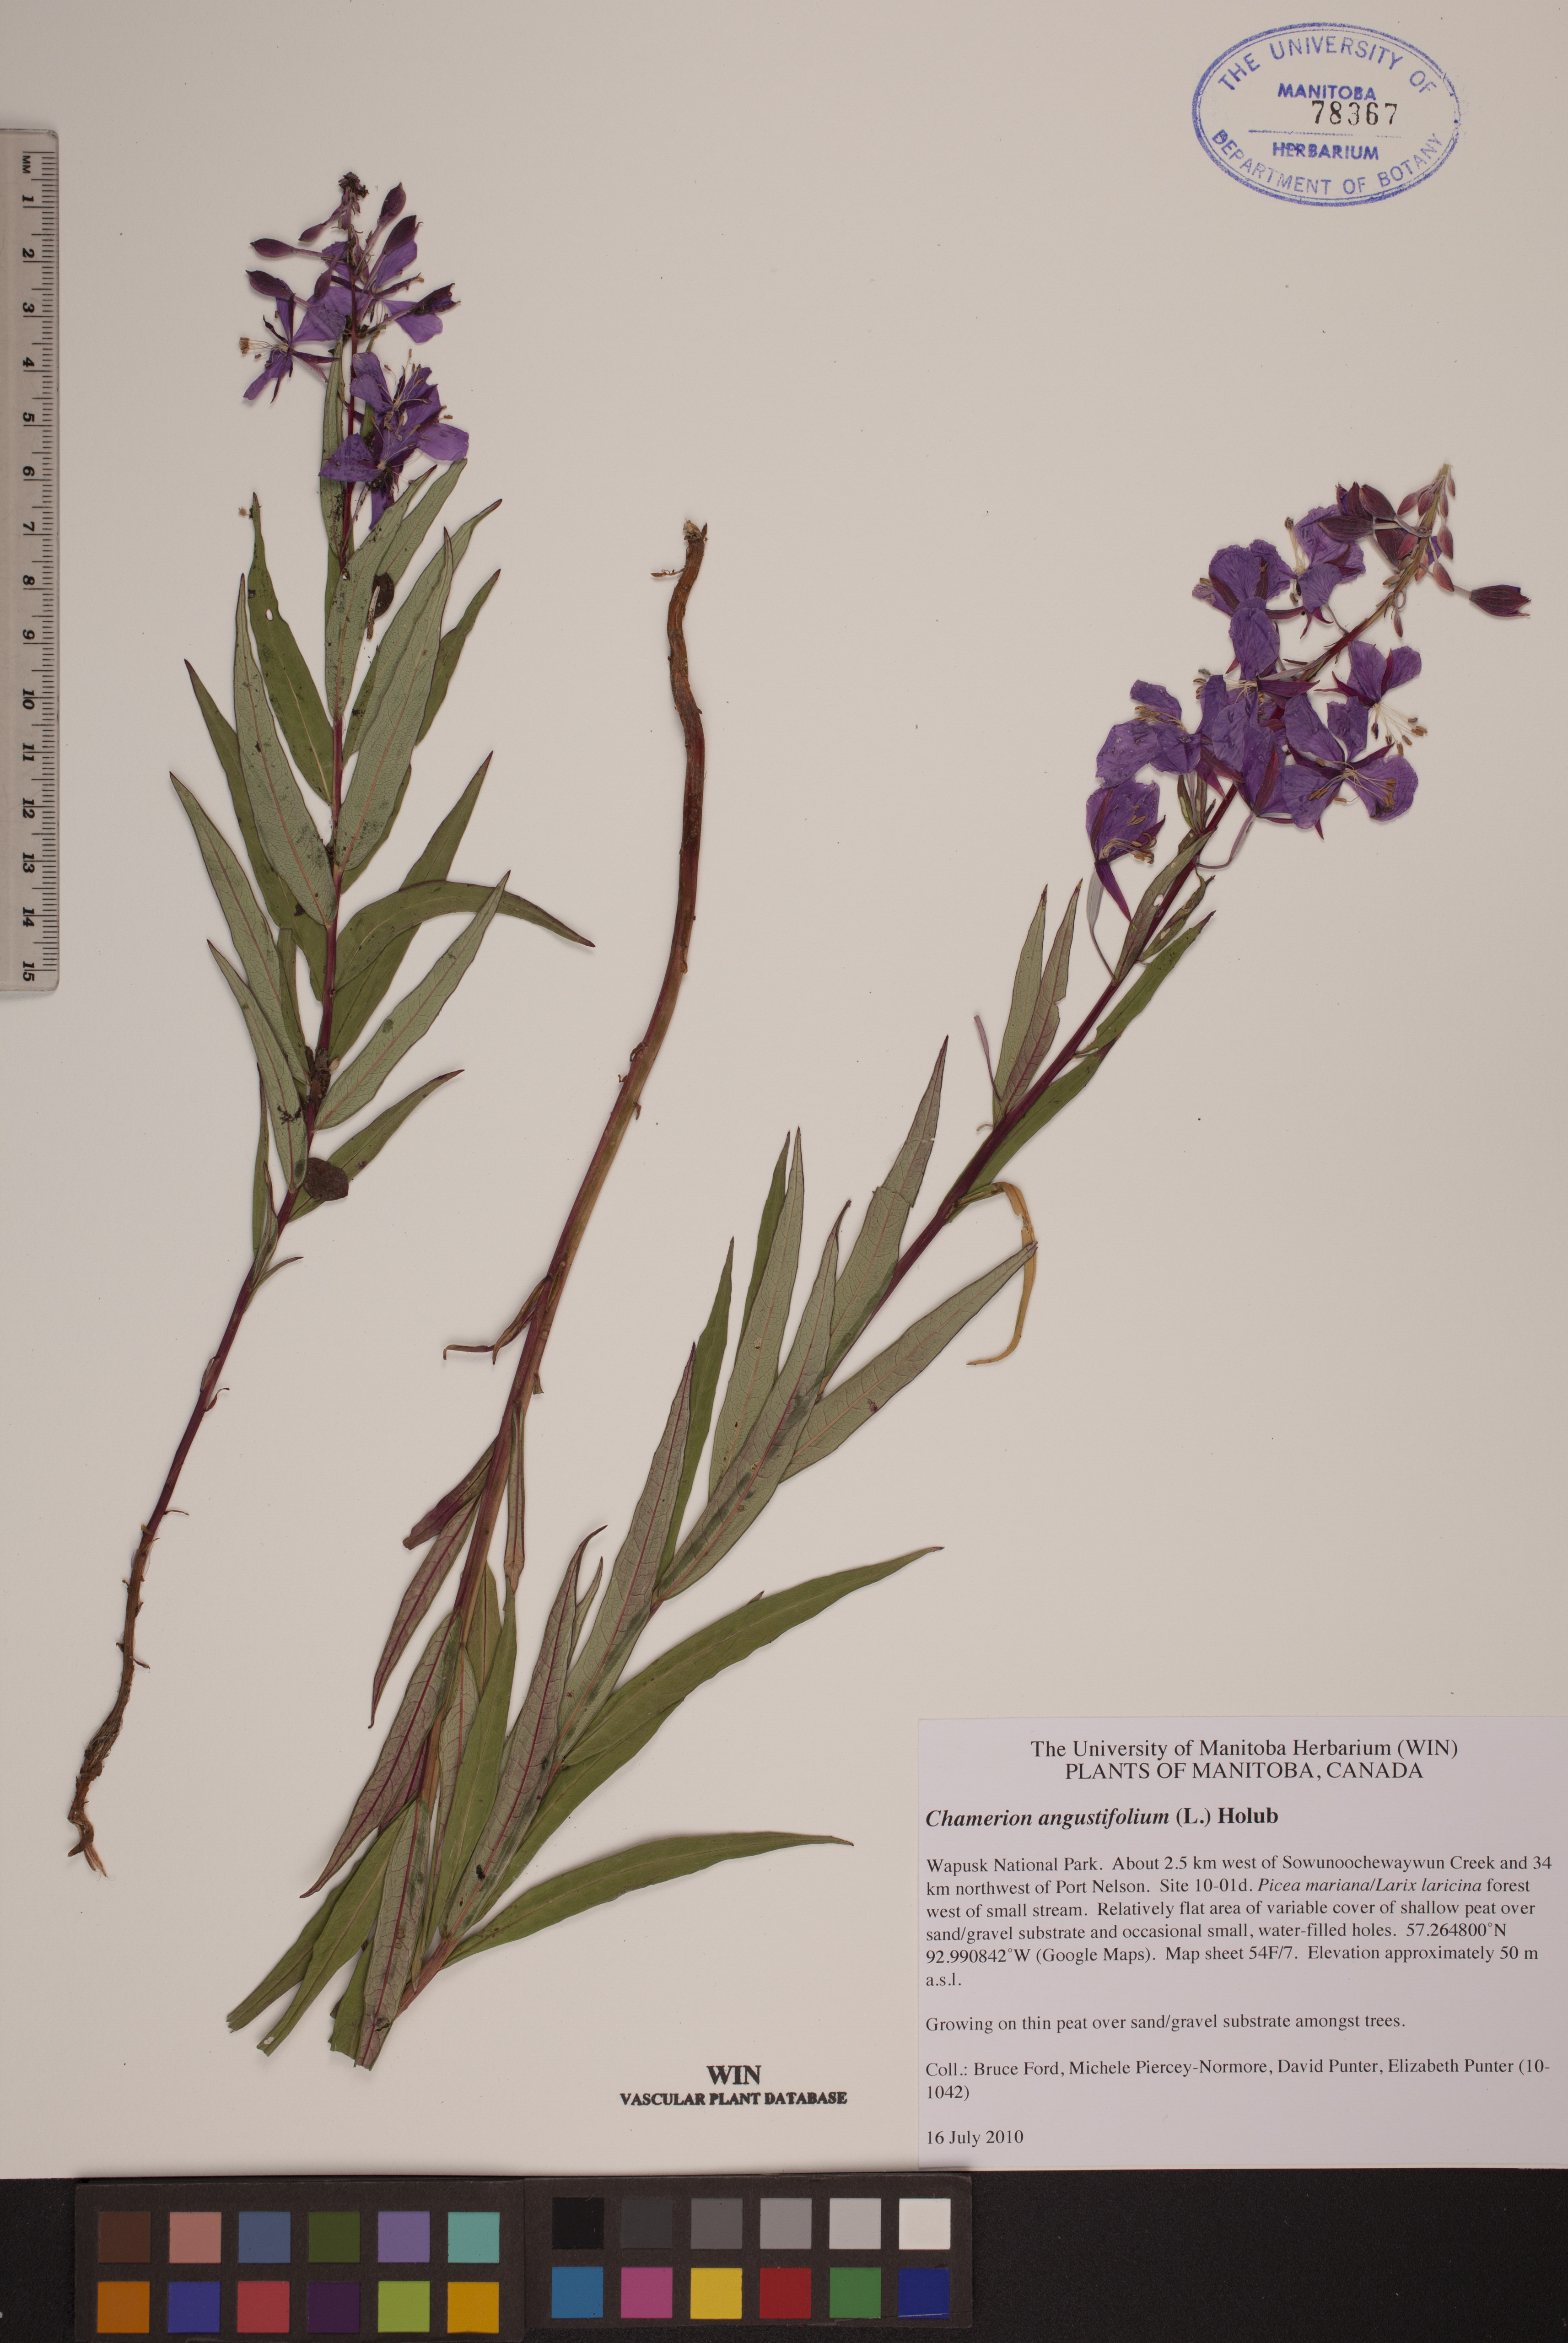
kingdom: Plantae
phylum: Tracheophyta
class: Magnoliopsida
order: Myrtales
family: Onagraceae
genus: Chamaenerion
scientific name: Chamaenerion angustifolium
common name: Fireweed
